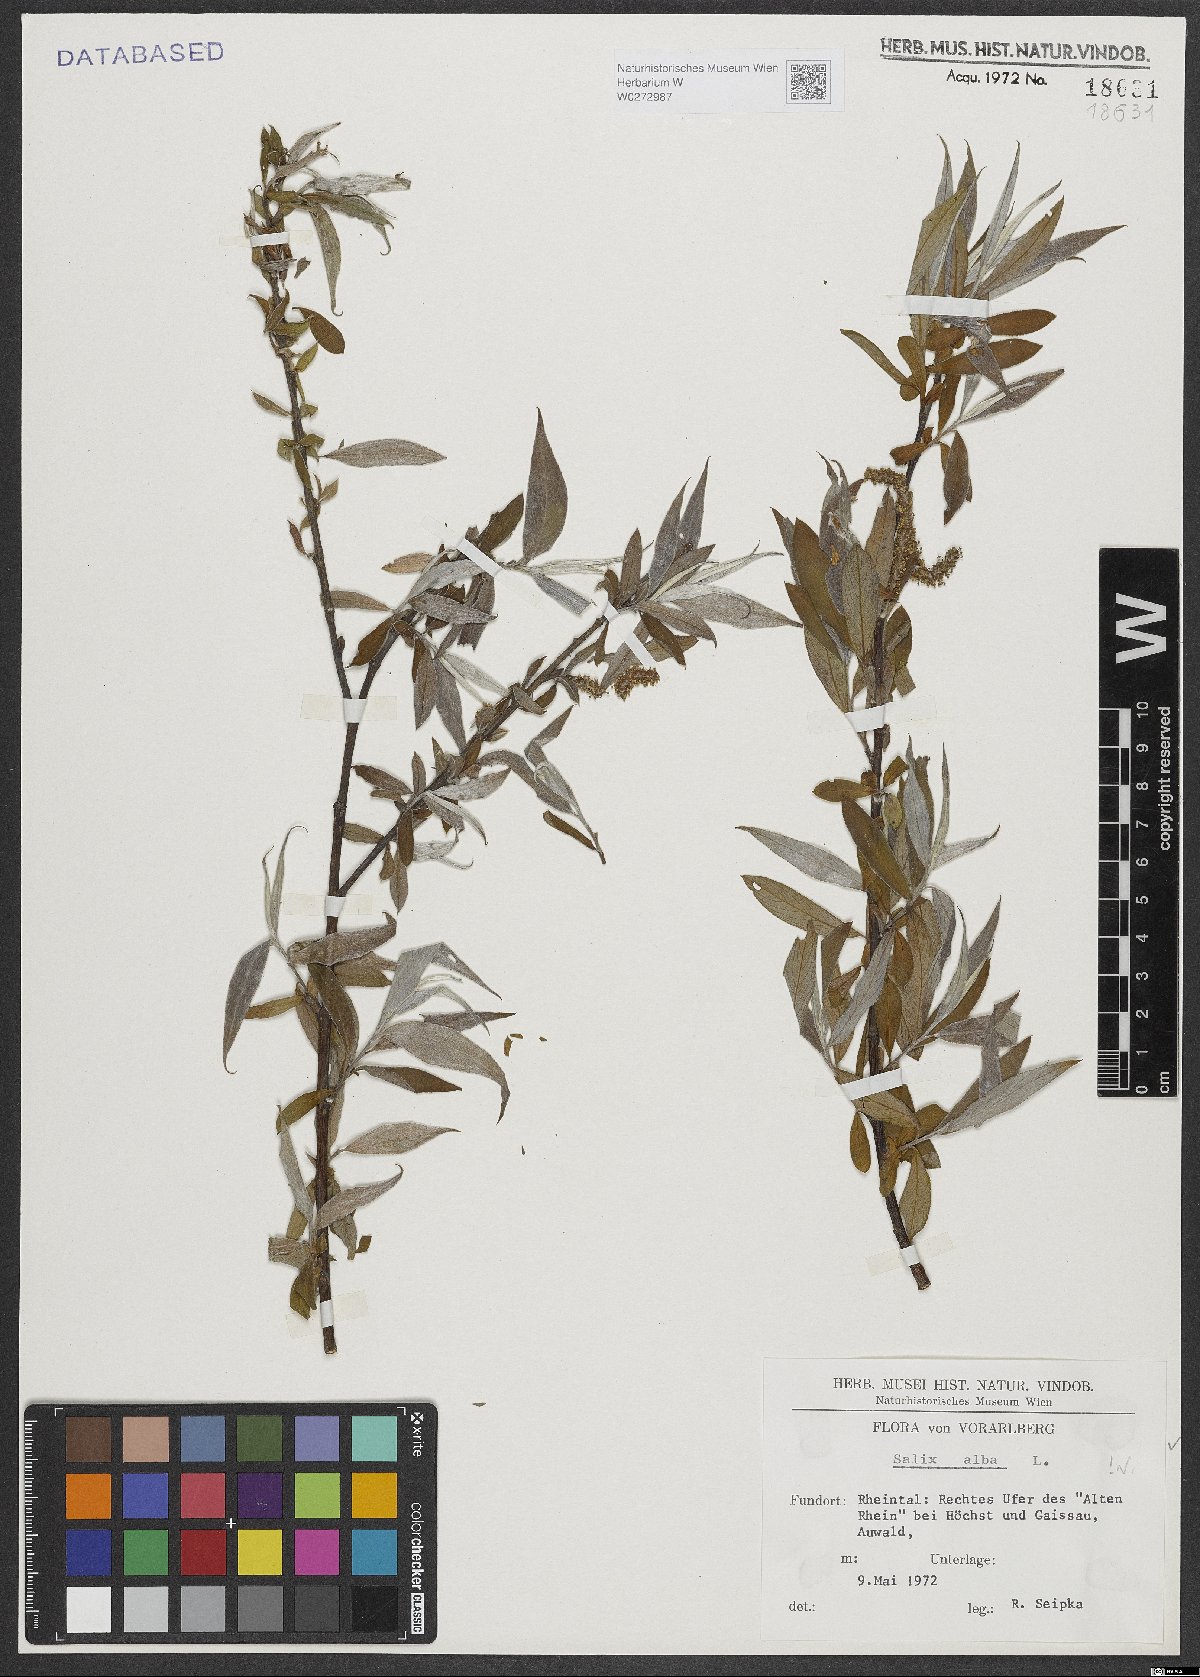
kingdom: Plantae
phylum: Tracheophyta
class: Magnoliopsida
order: Malpighiales
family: Salicaceae
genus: Salix
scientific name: Salix alba
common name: White willow
